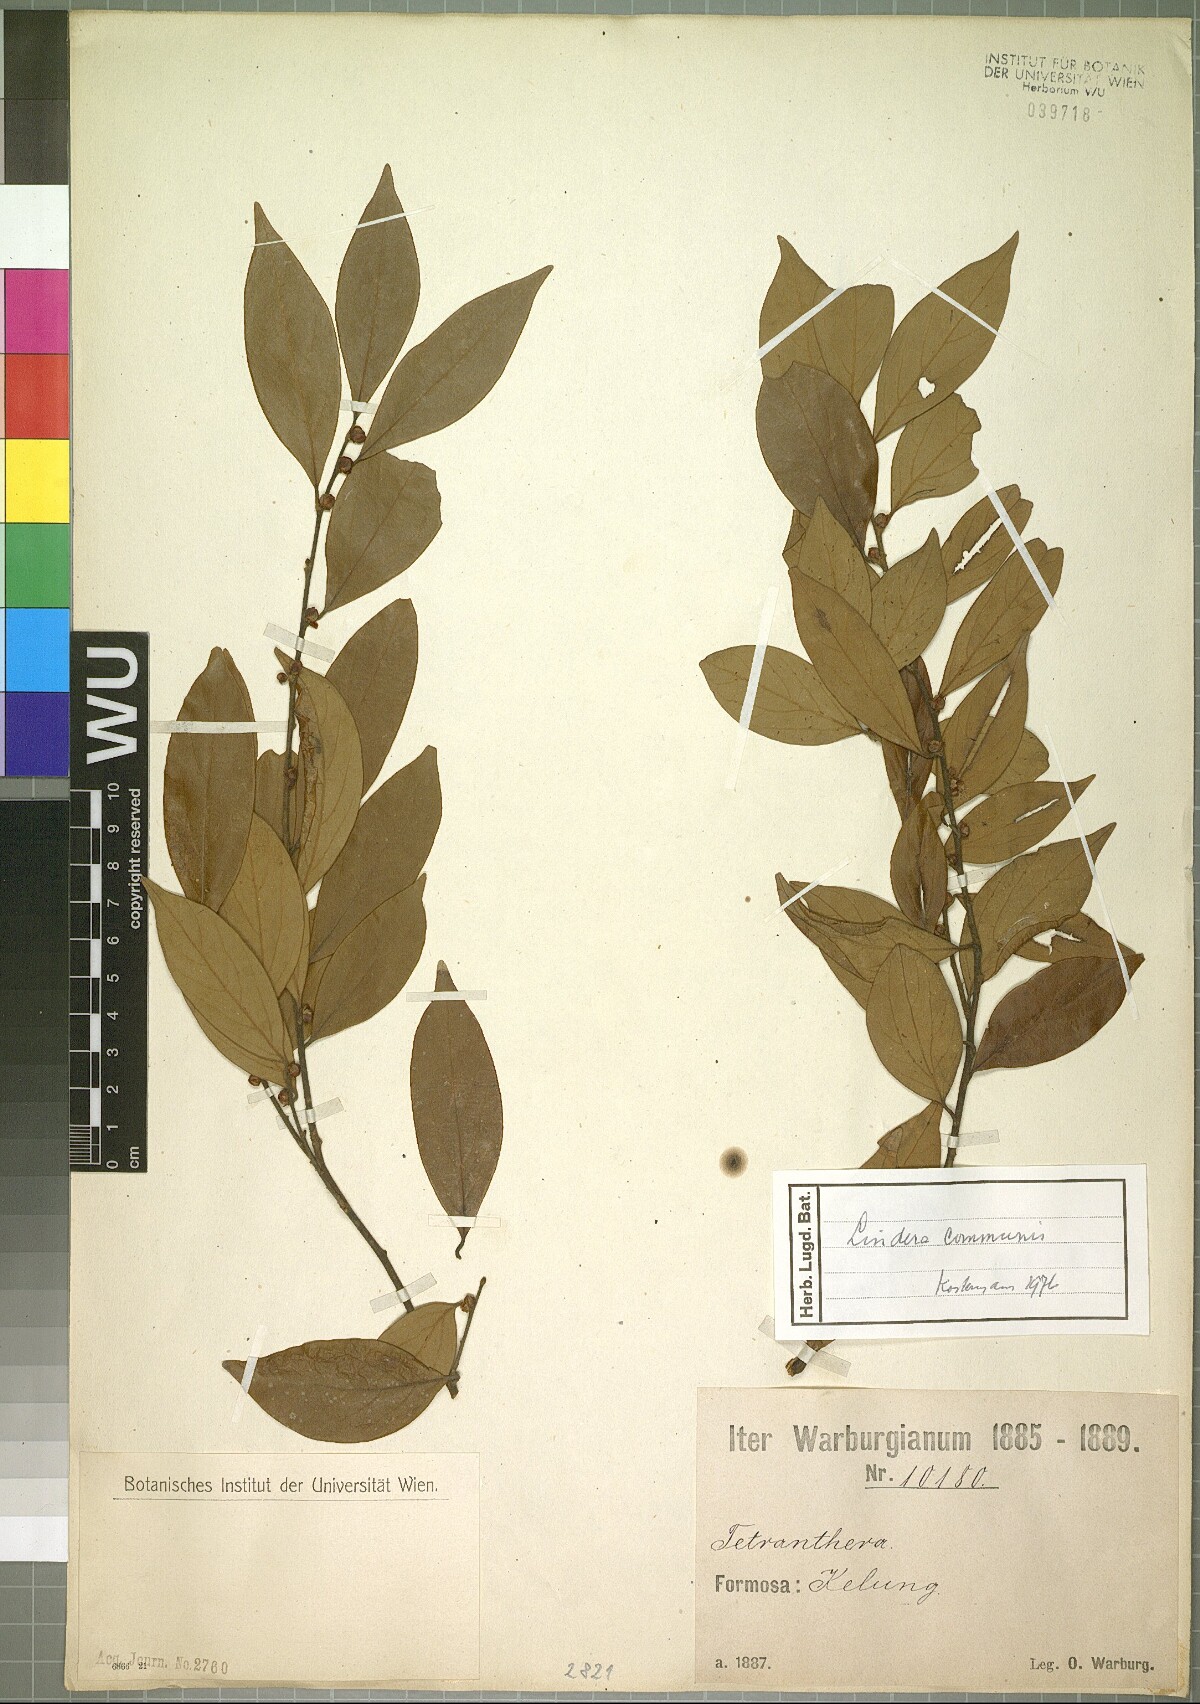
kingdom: Plantae
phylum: Tracheophyta
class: Magnoliopsida
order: Laurales
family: Lauraceae
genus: Lindera
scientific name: Lindera communis
